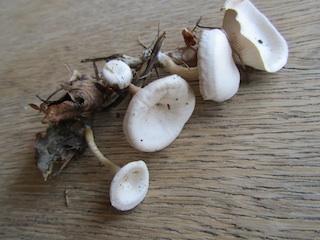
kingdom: Fungi
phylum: Basidiomycota
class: Agaricomycetes
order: Agaricales
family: Tricholomataceae
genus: Leucocybe
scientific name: Leucocybe candicans
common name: kridt-tragthat
